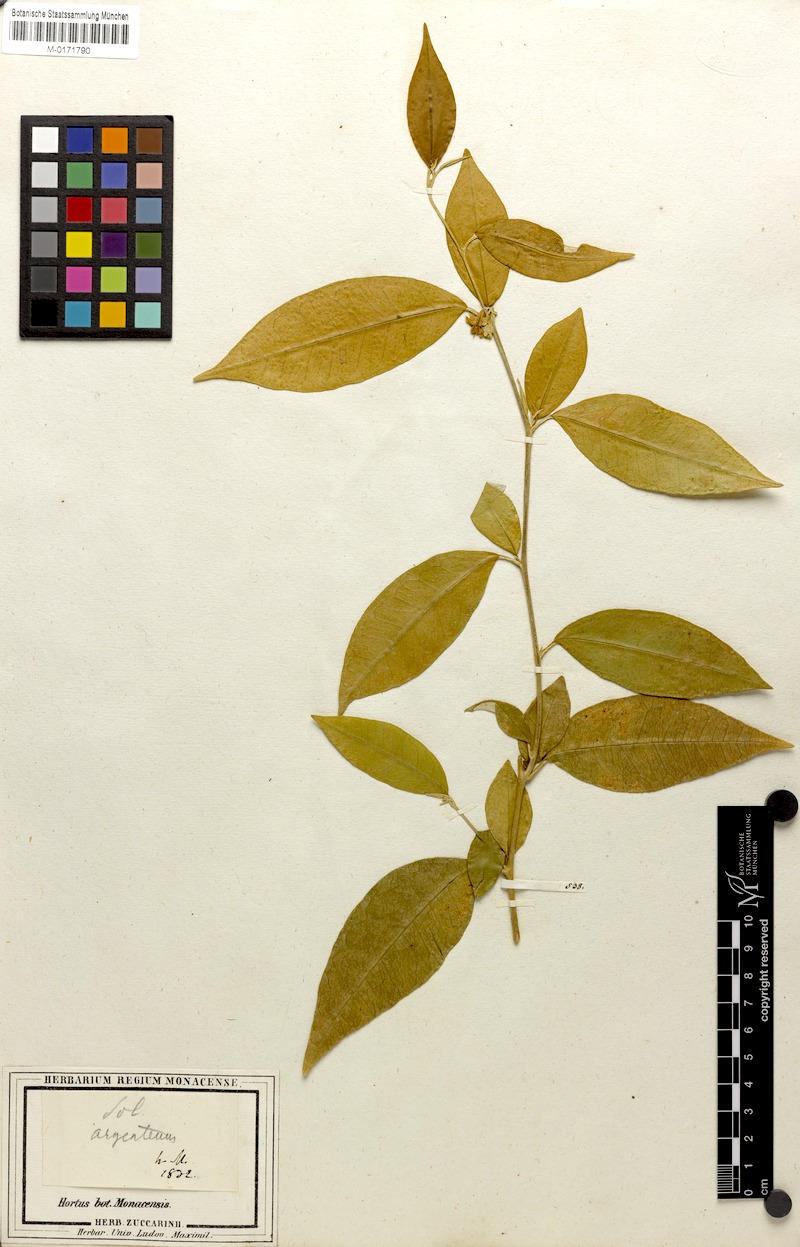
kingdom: Plantae
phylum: Tracheophyta
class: Magnoliopsida
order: Solanales
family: Solanaceae
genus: Solanum
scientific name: Solanum argenteum
